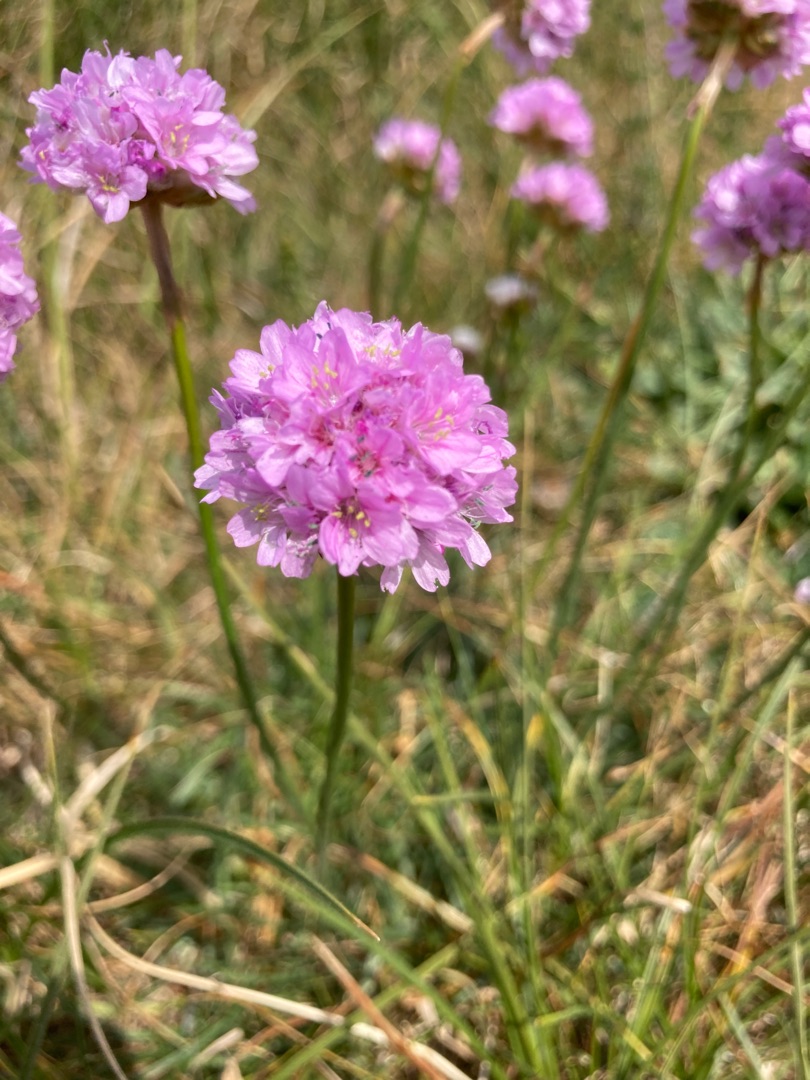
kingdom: Plantae
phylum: Tracheophyta
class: Magnoliopsida
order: Caryophyllales
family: Plumbaginaceae
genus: Armeria
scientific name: Armeria maritima
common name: Engelskgræs
